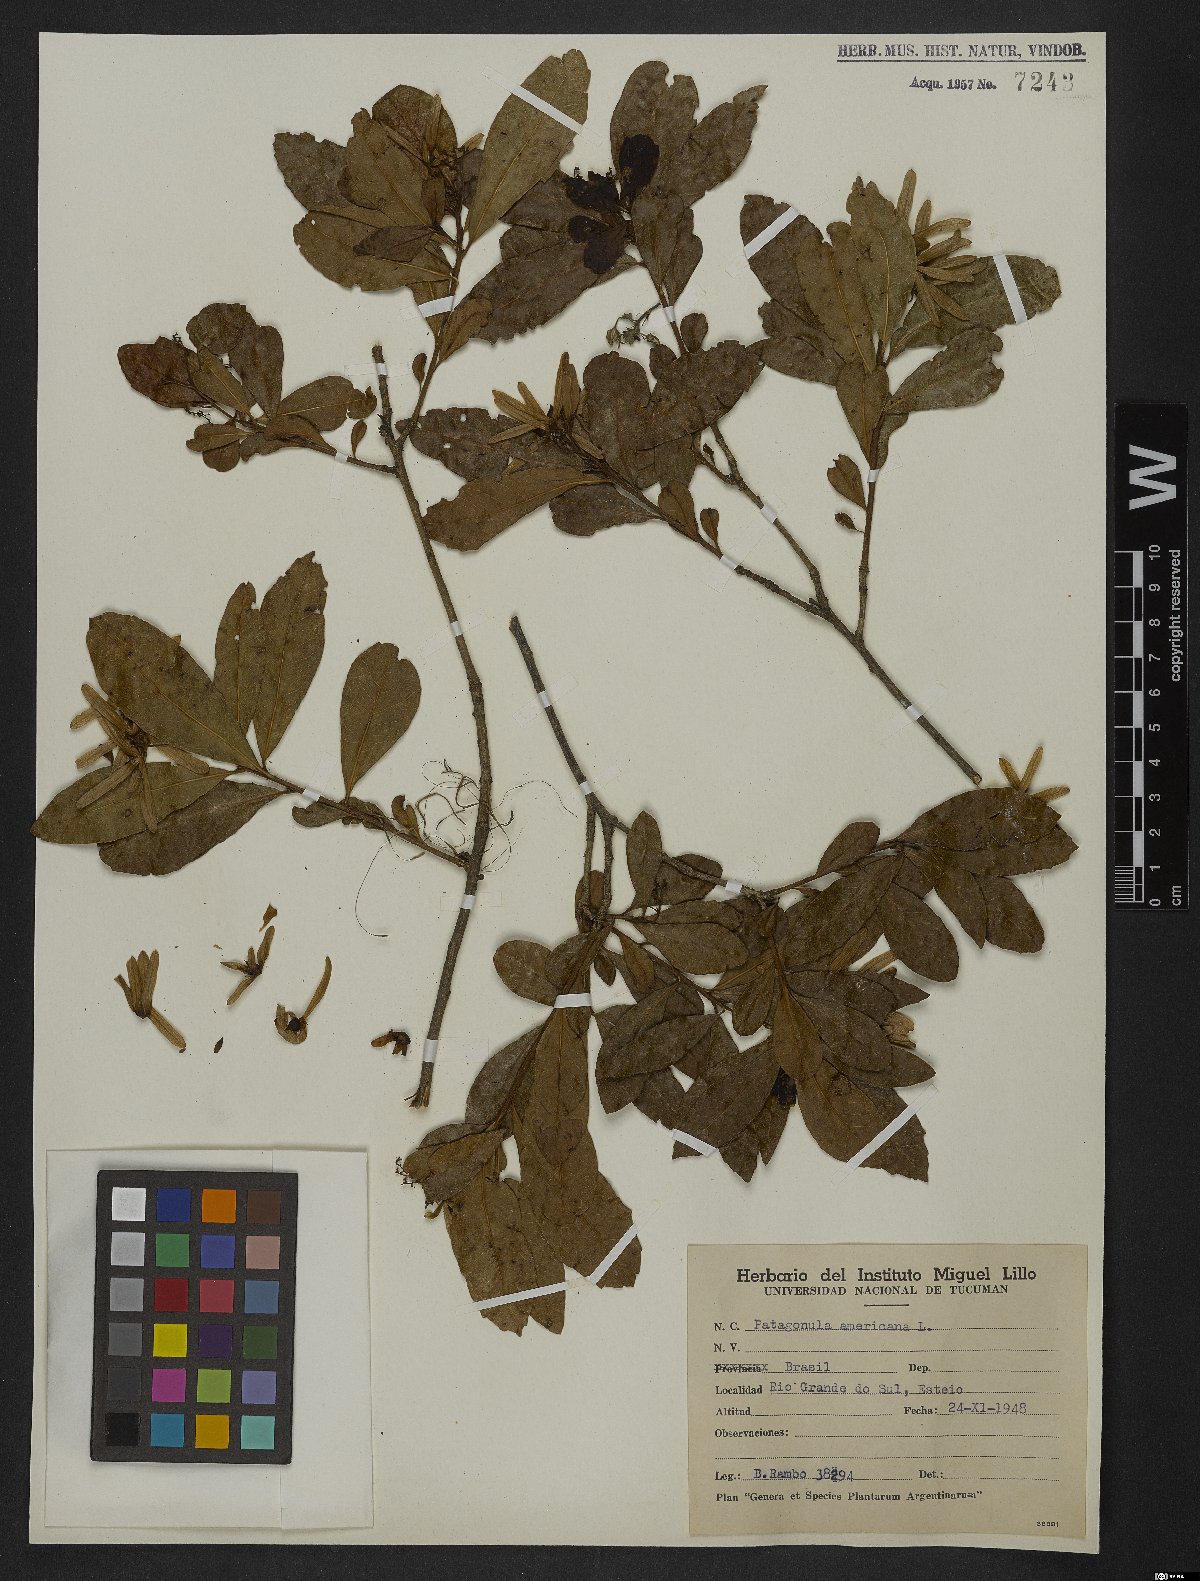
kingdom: Plantae
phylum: Tracheophyta
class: Magnoliopsida
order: Boraginales
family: Cordiaceae
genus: Cordia
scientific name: Cordia americana
